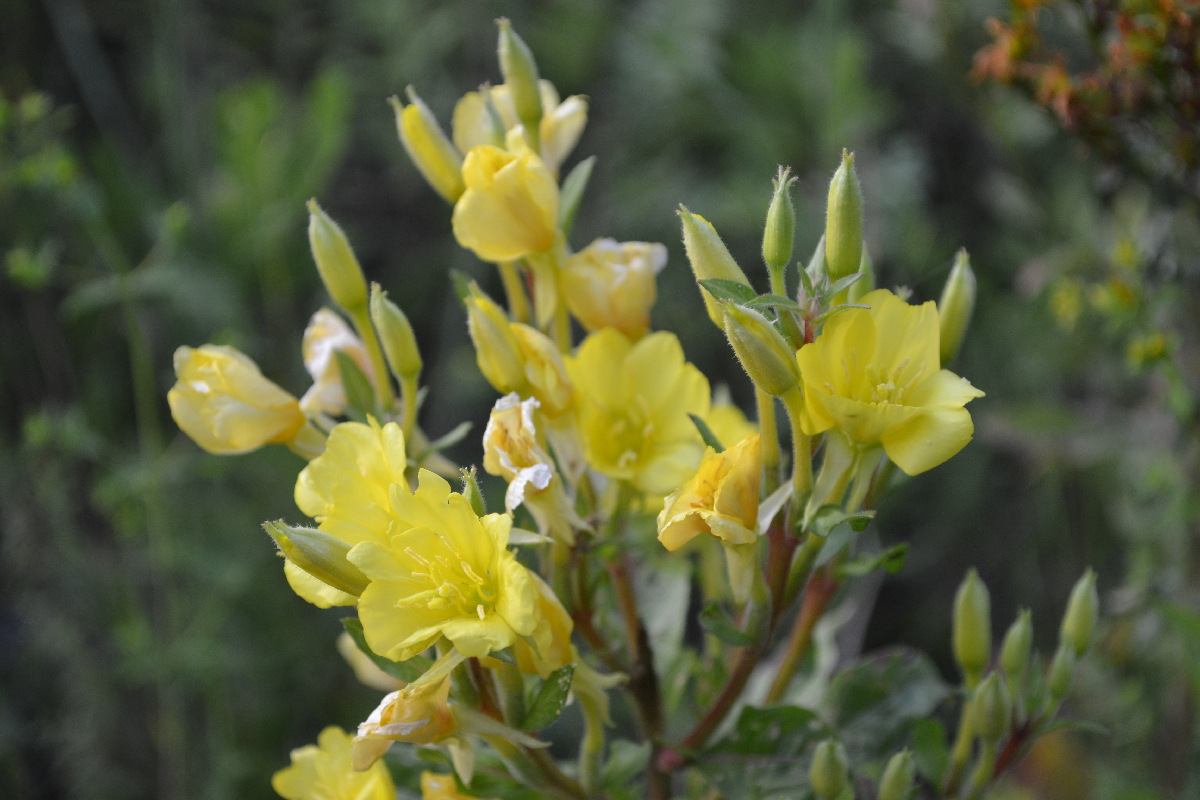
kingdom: Plantae
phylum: Tracheophyta
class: Magnoliopsida
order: Myrtales
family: Onagraceae
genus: Oenothera
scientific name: Oenothera rubricaulis
